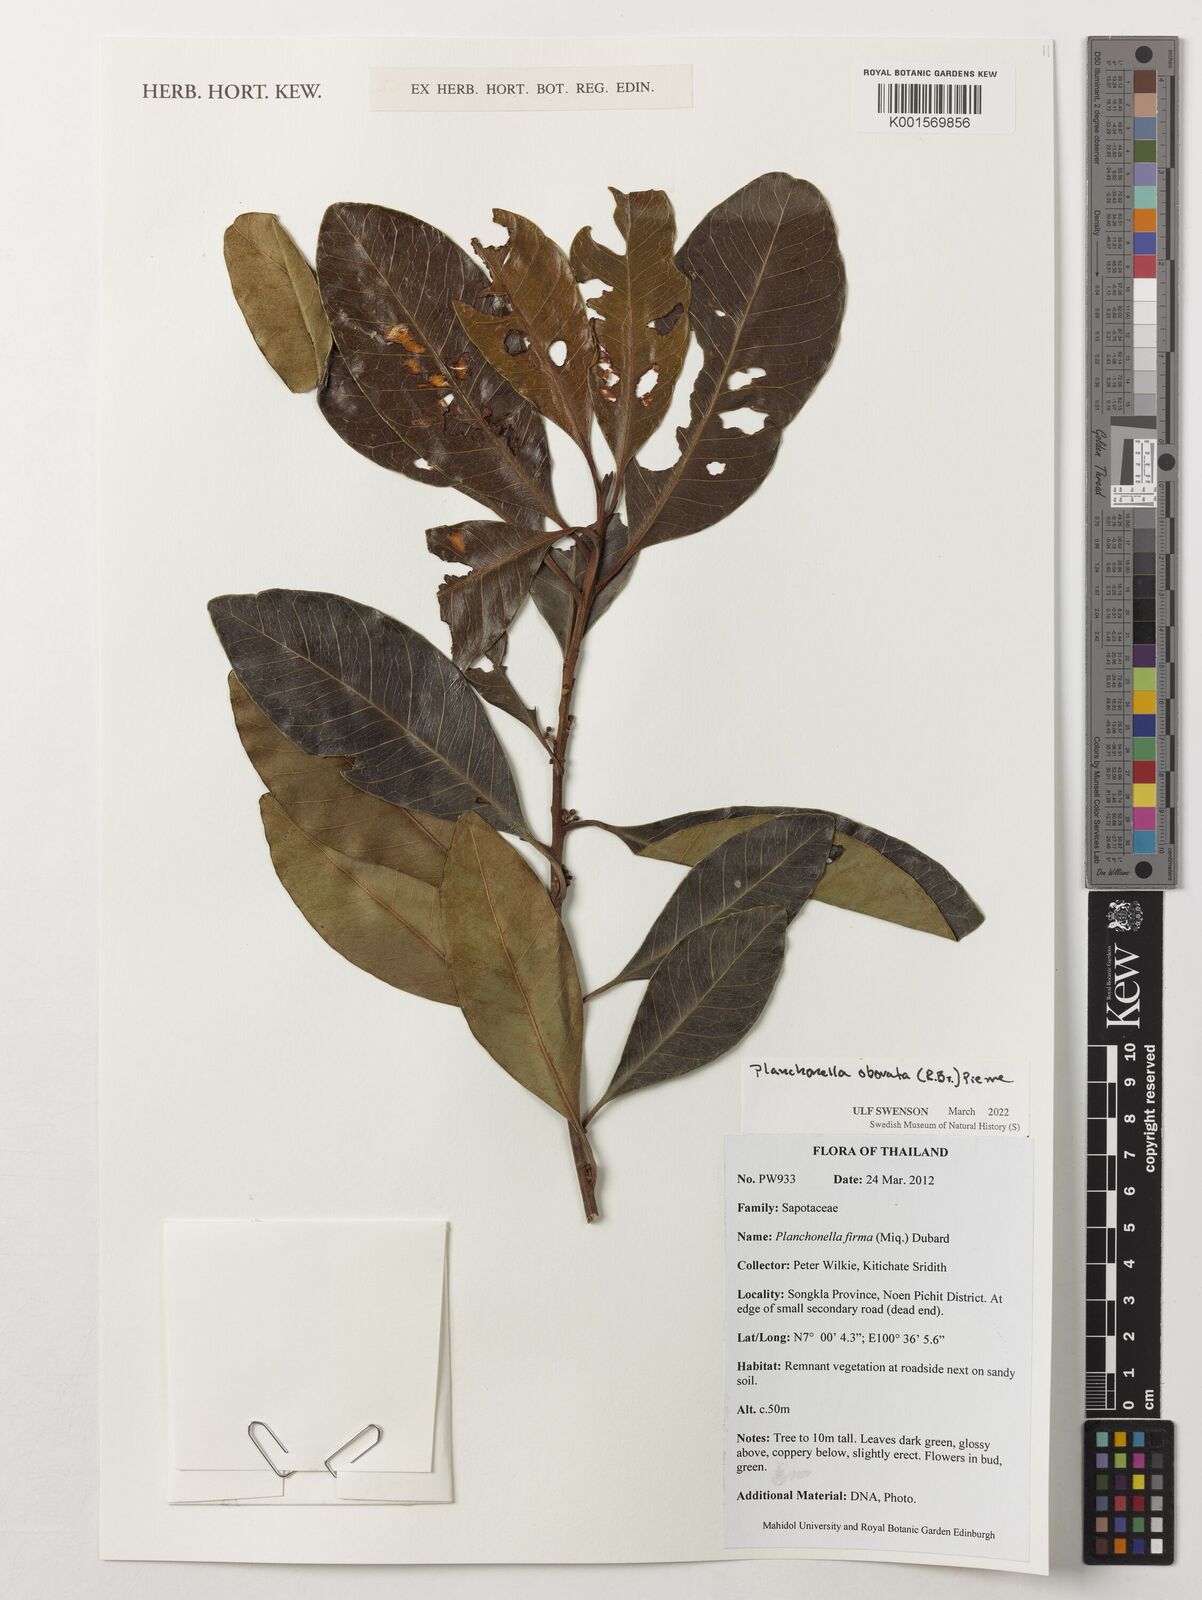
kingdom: Plantae
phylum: Tracheophyta
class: Magnoliopsida
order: Ericales
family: Sapotaceae
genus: Pleioluma
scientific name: Pleioluma firma
